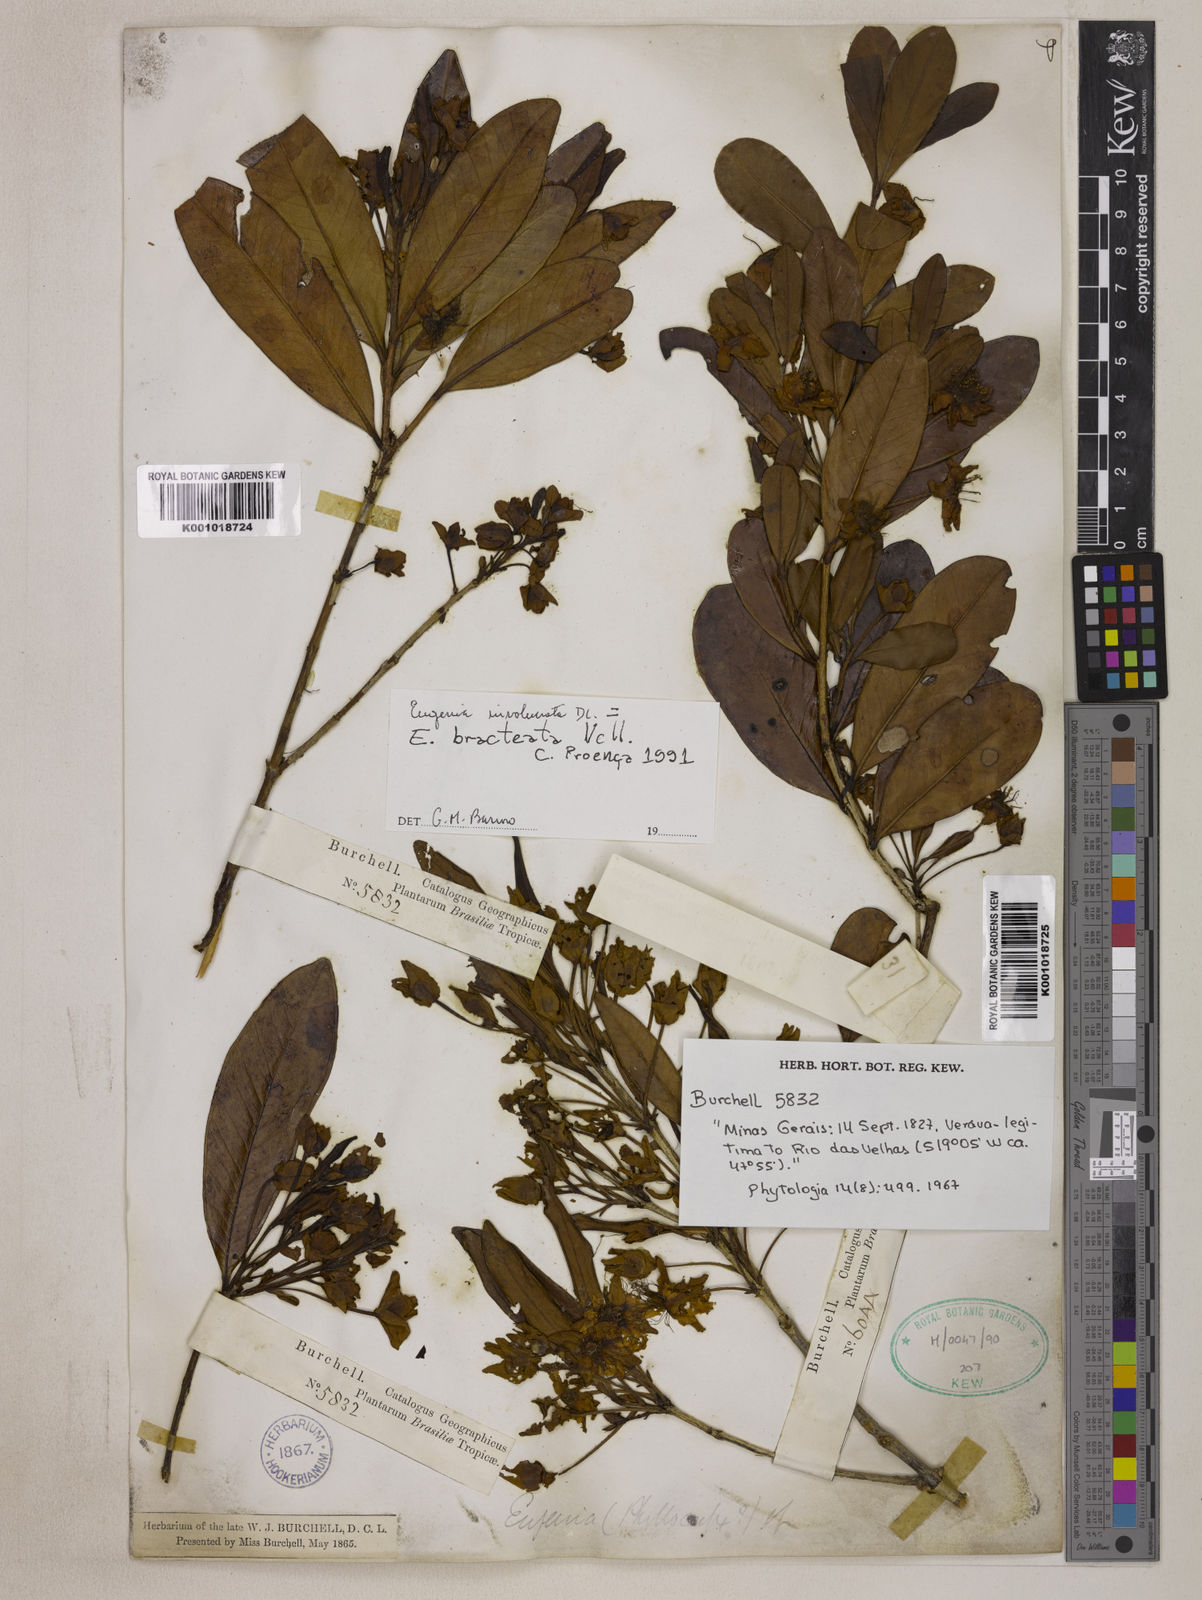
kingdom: Plantae
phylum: Tracheophyta
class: Magnoliopsida
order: Myrtales
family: Myrtaceae
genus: Eugenia
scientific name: Eugenia involucrata
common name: Cherry-of-the-rio grande
